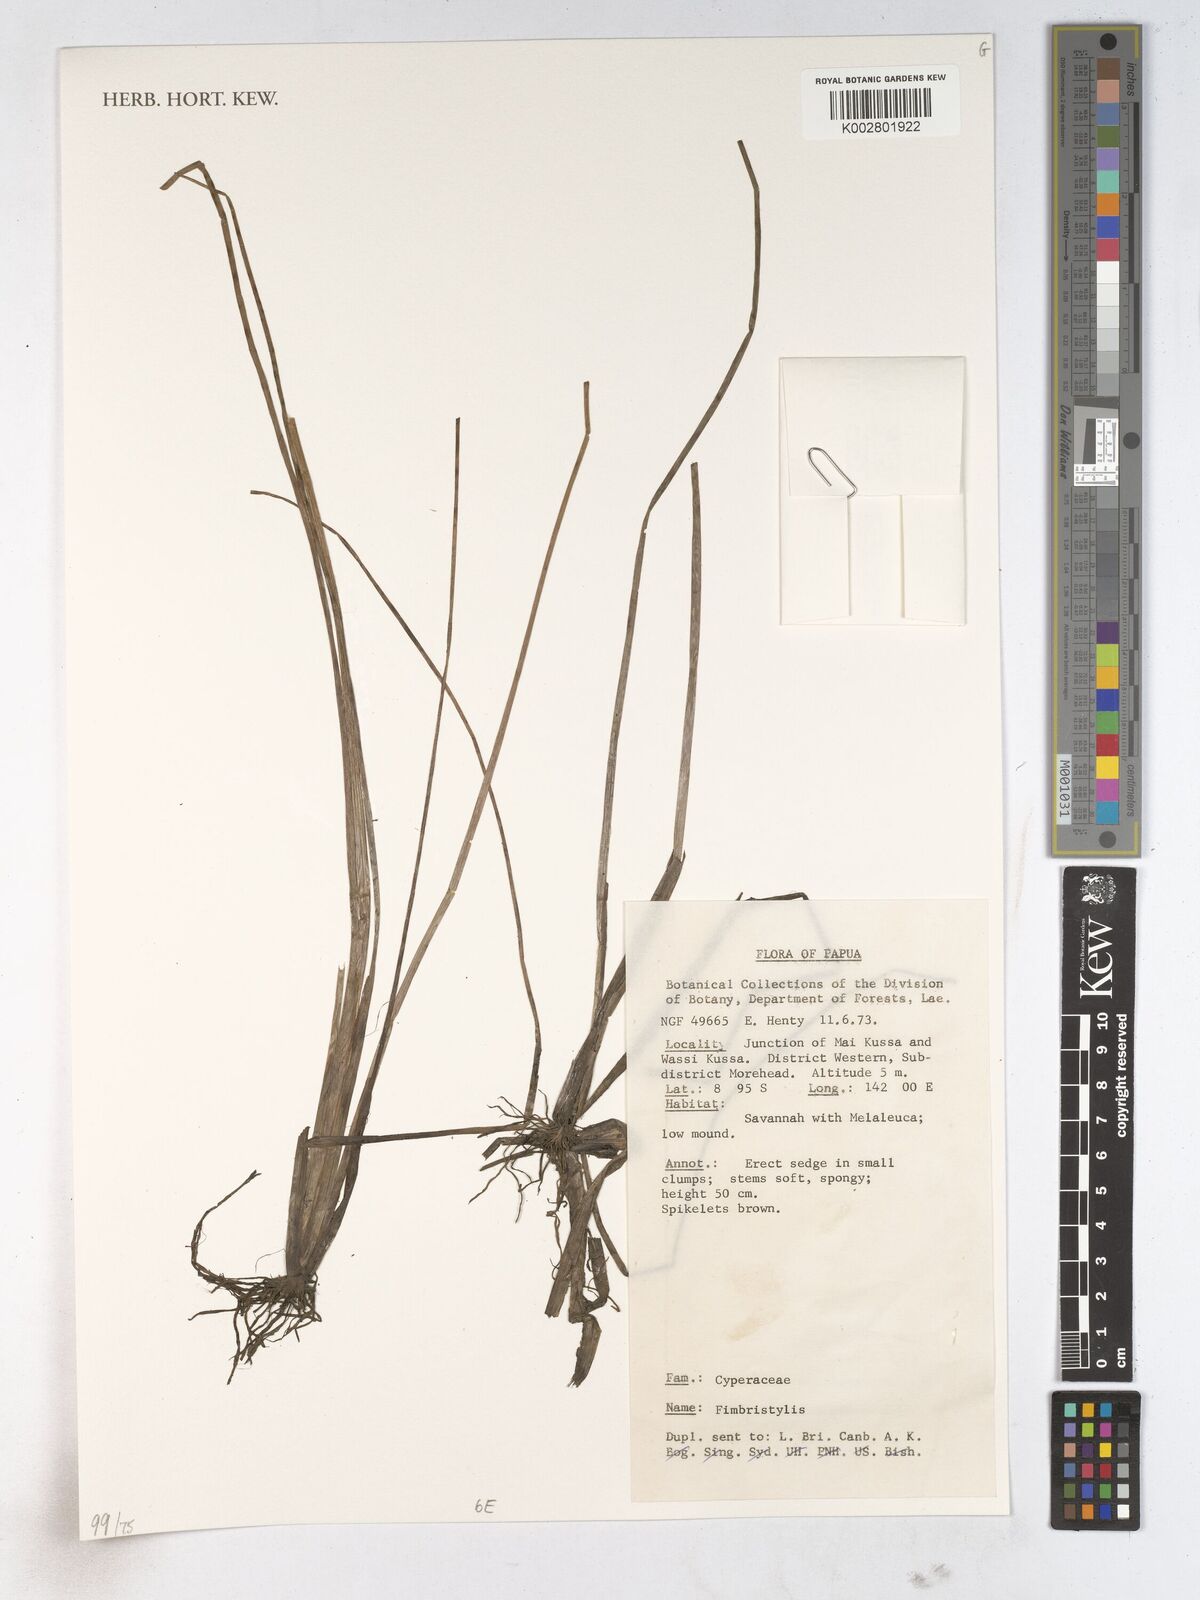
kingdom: Plantae
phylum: Tracheophyta
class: Liliopsida
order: Poales
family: Cyperaceae
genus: Fimbristylis
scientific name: Fimbristylis
